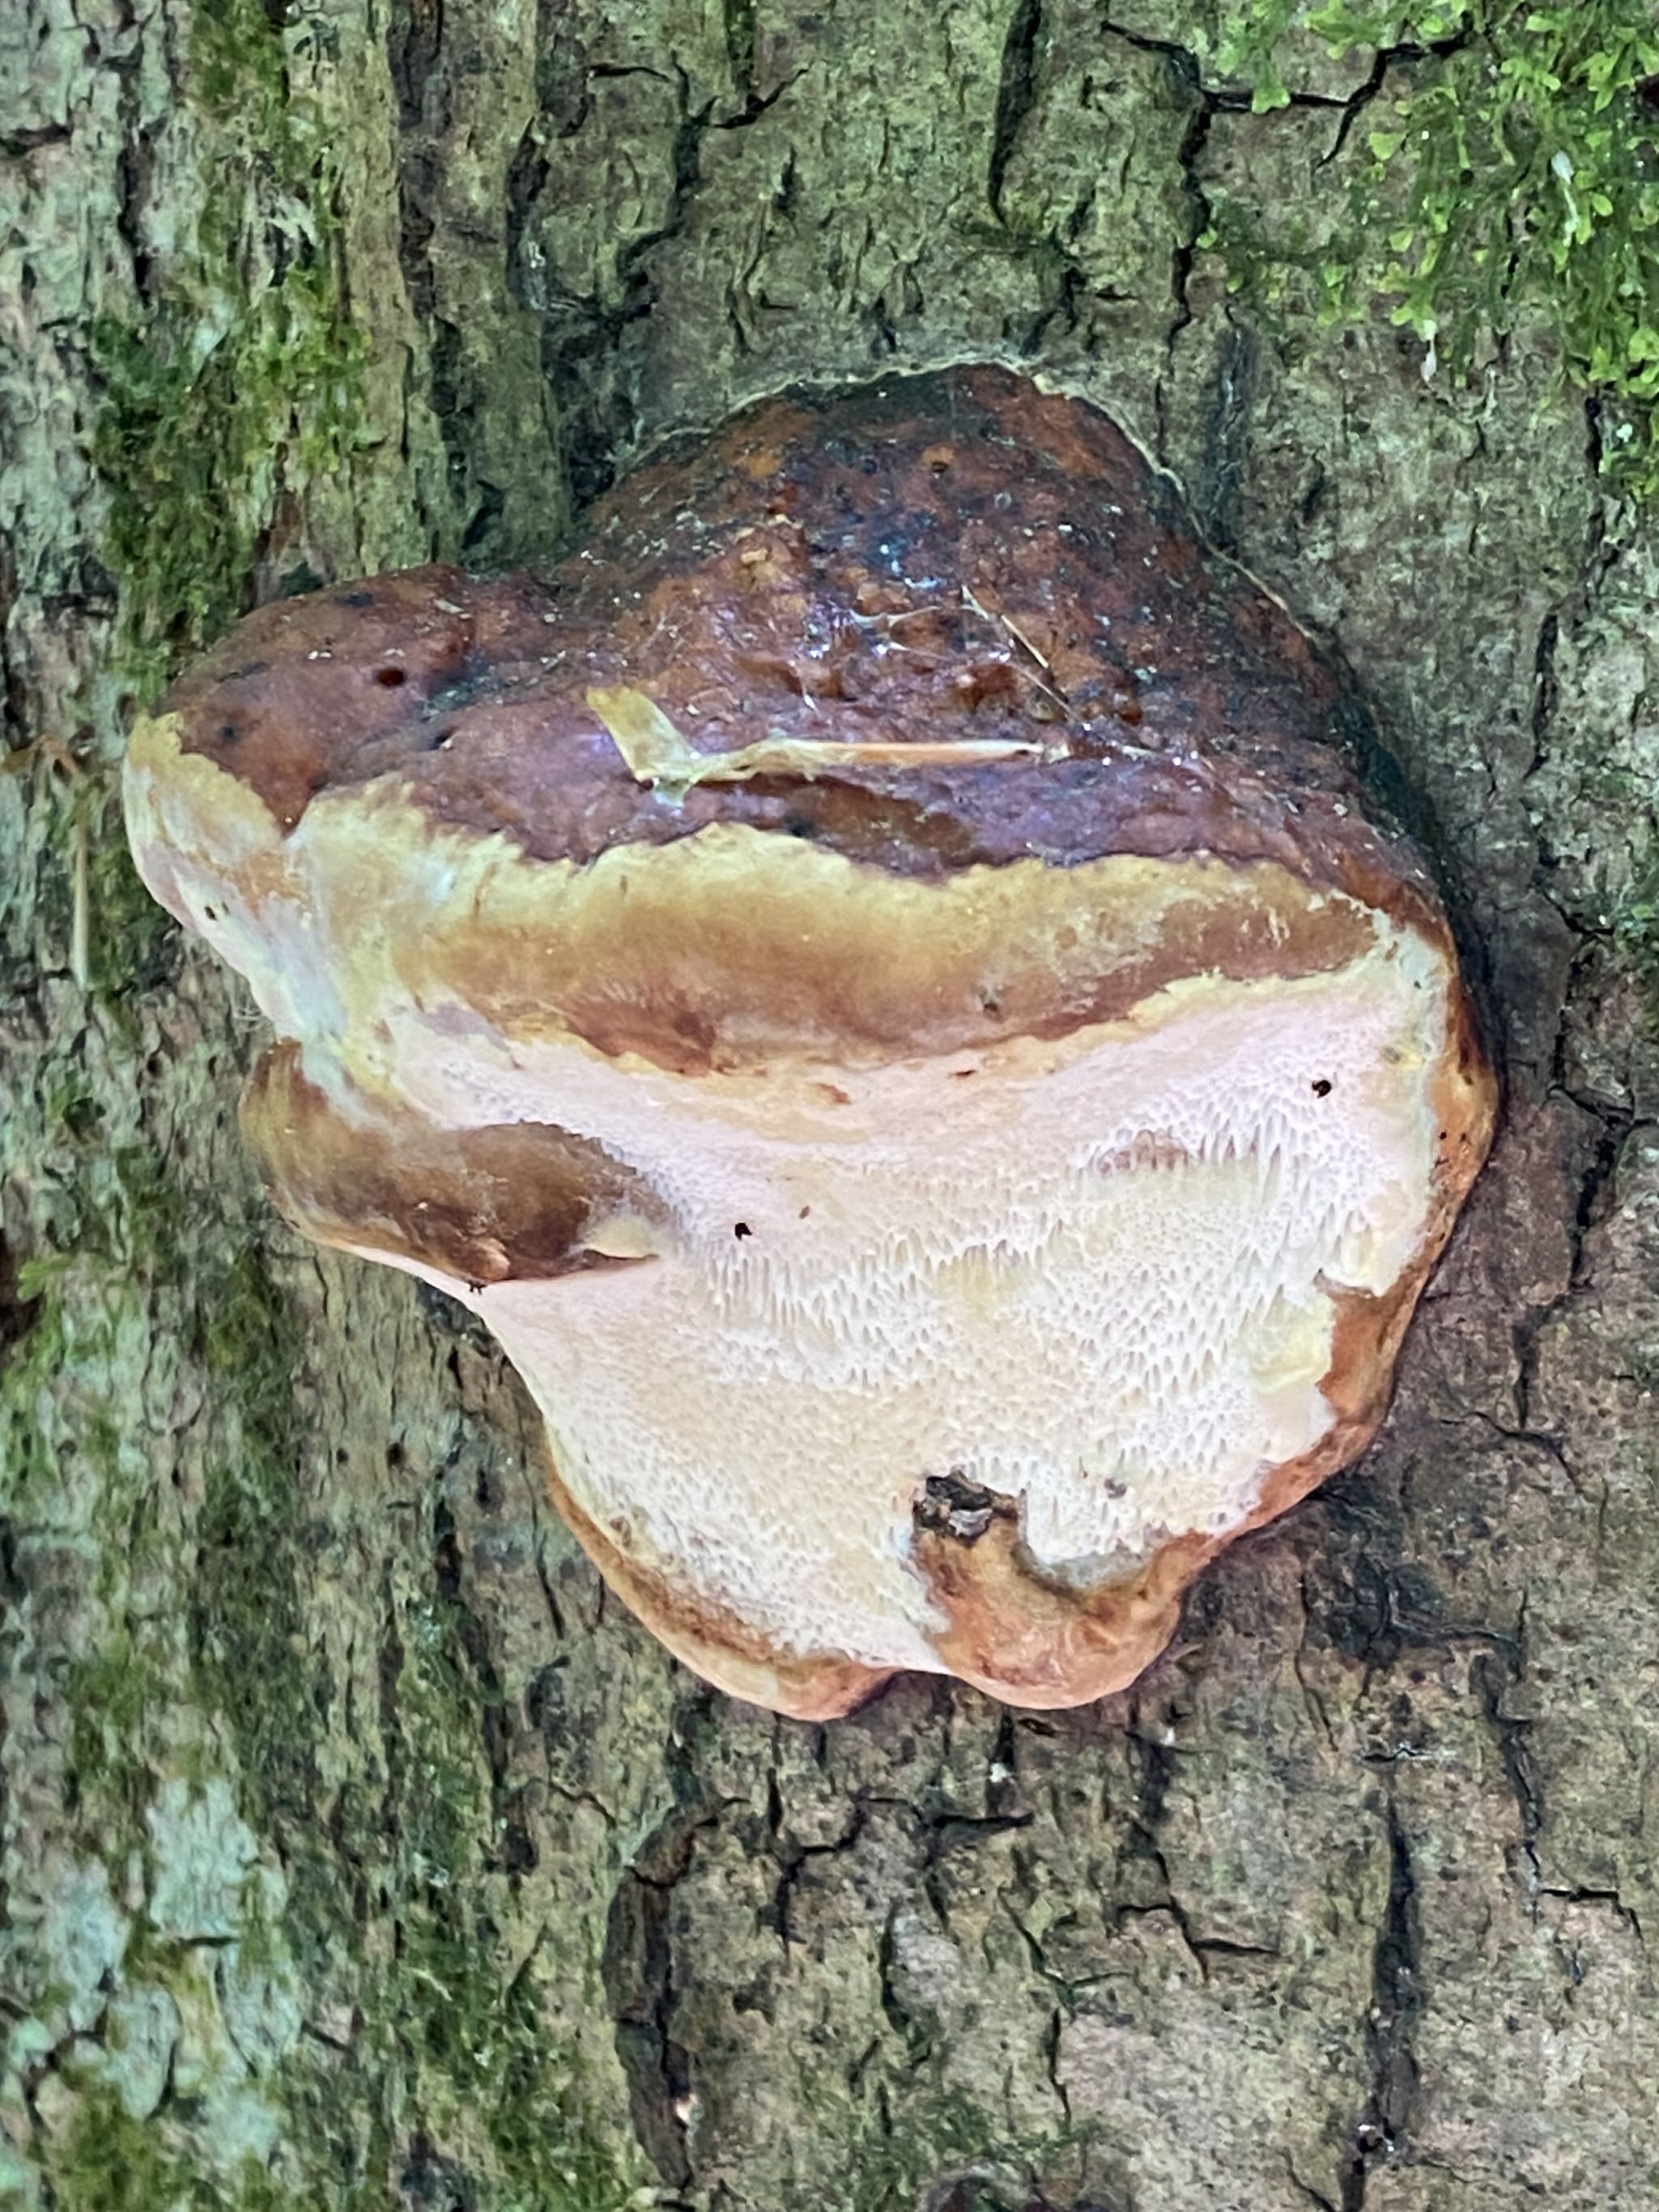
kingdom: Fungi
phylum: Basidiomycota
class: Agaricomycetes
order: Polyporales
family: Fomitopsidaceae
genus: Fomitopsis
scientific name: Fomitopsis pinicola
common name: randbæltet hovporesvamp
